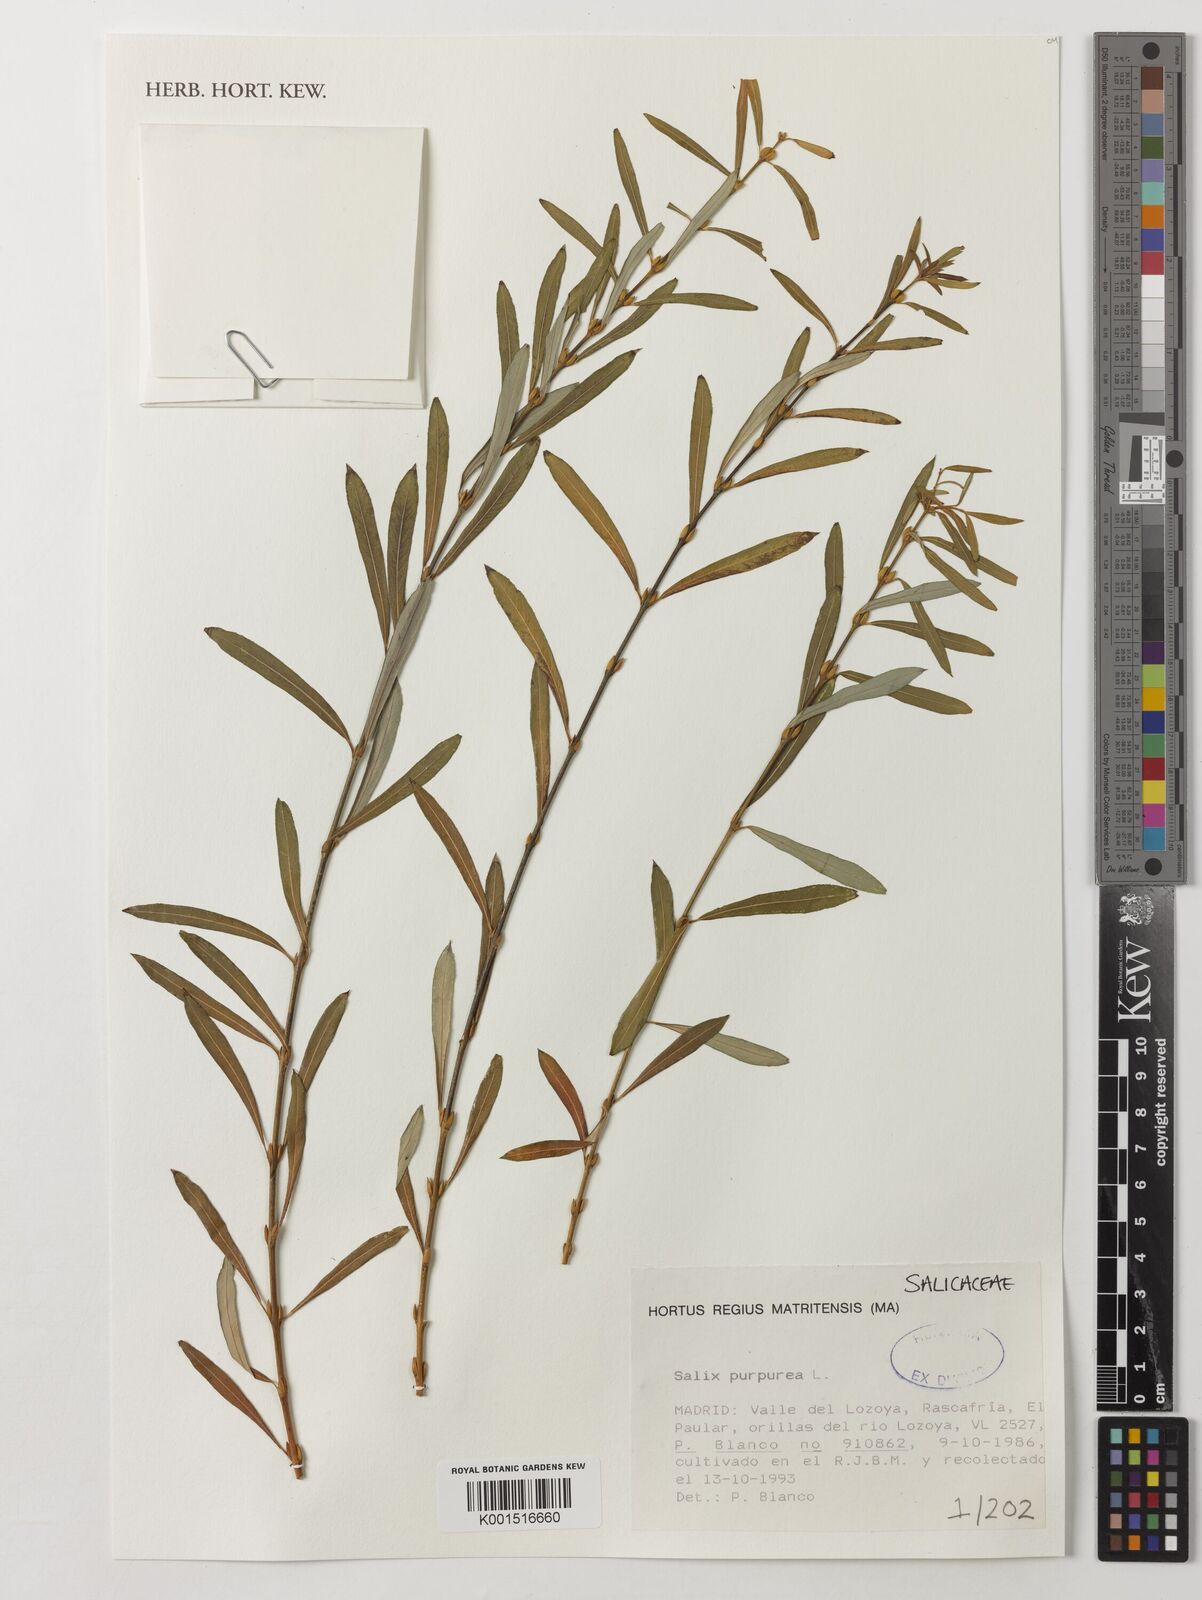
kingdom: Plantae
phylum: Tracheophyta
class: Magnoliopsida
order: Malpighiales
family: Salicaceae
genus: Salix
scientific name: Salix purpurea
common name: Purple willow
